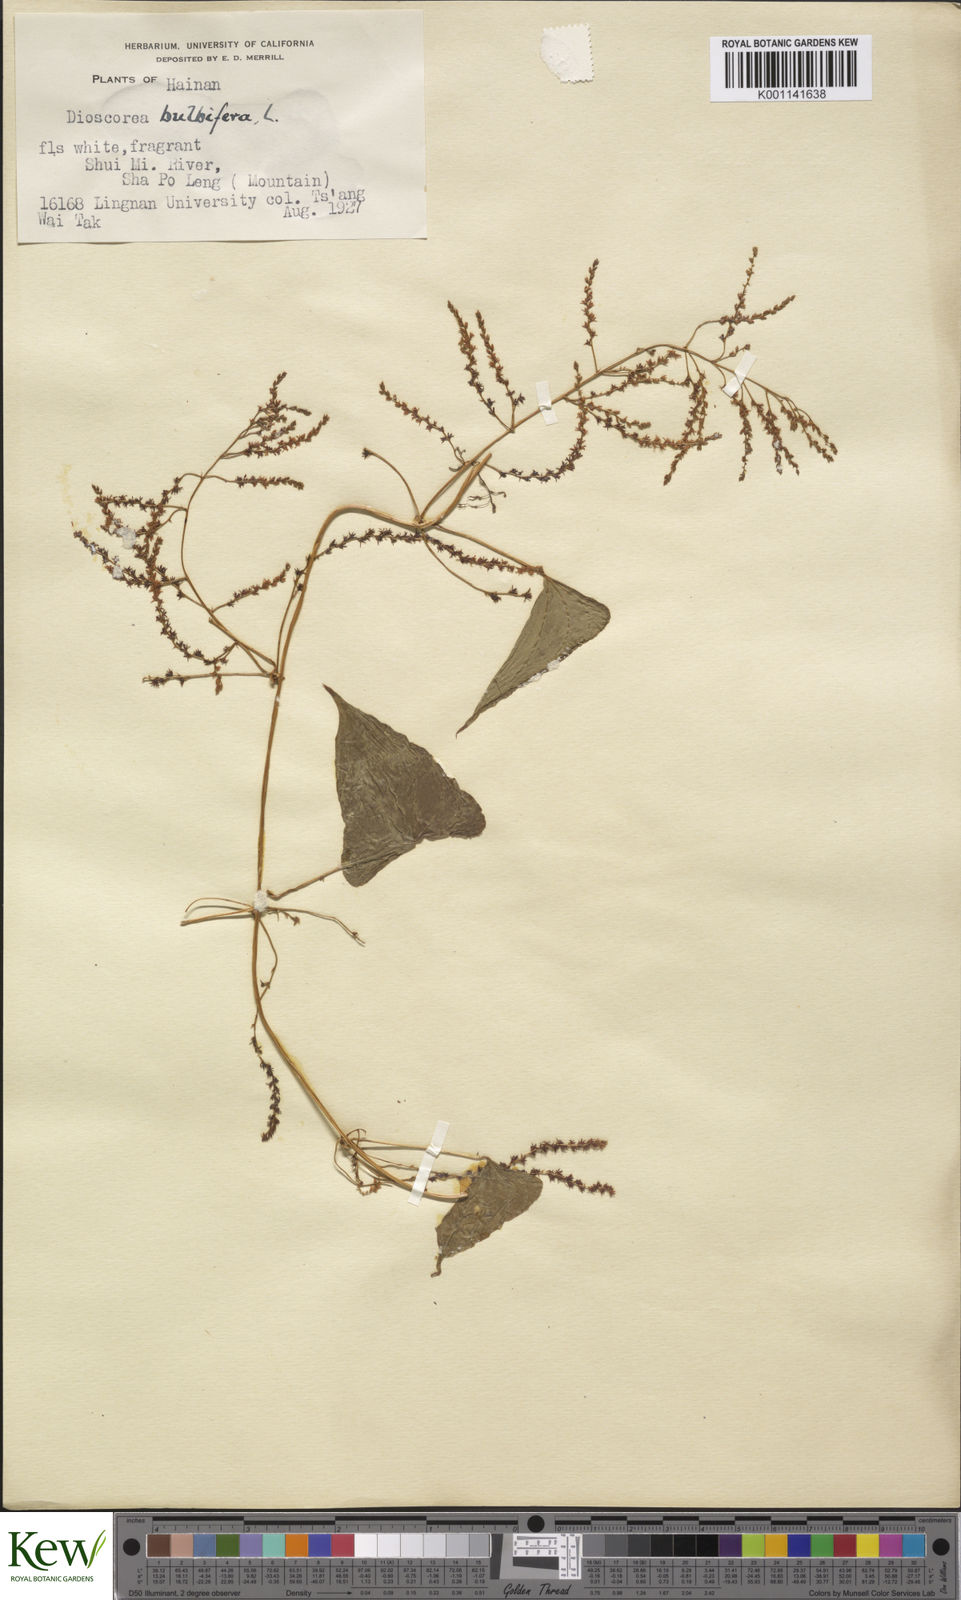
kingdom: Plantae
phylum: Tracheophyta
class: Liliopsida
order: Dioscoreales
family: Dioscoreaceae
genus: Dioscorea
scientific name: Dioscorea bulbifera
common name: Air yam
